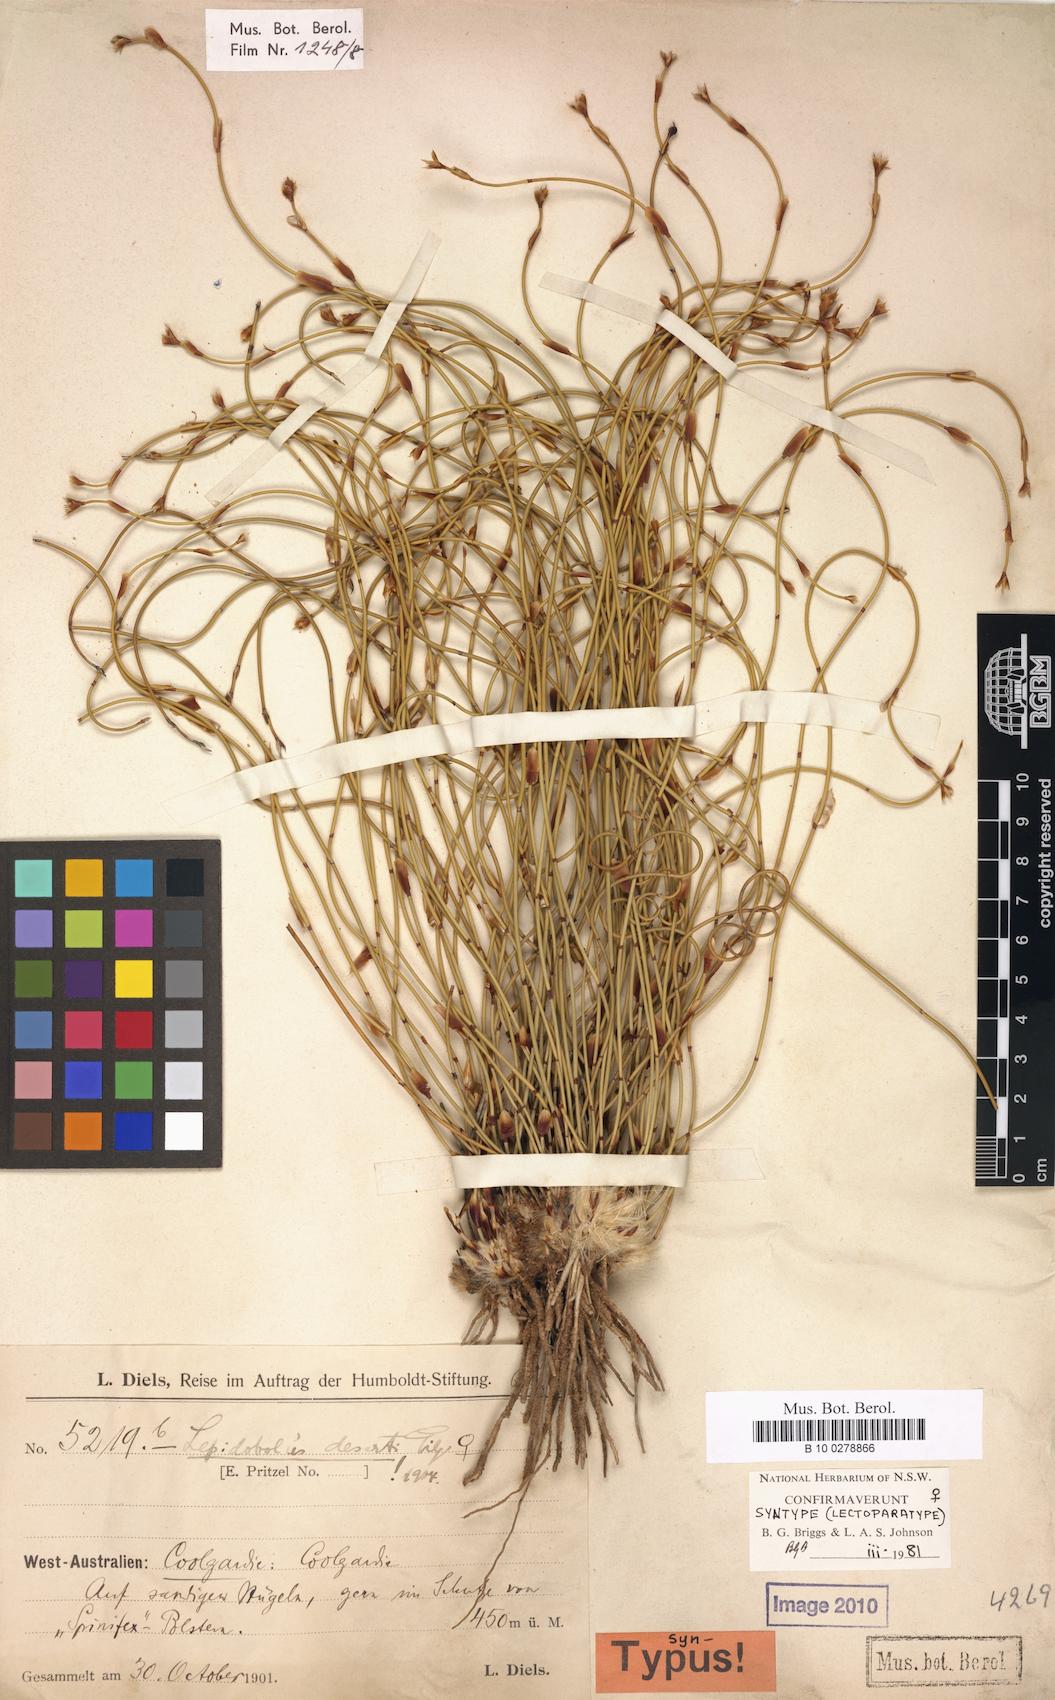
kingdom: Plantae
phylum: Tracheophyta
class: Liliopsida
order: Poales
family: Restionaceae
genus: Lepidobolus
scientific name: Lepidobolus deserti
